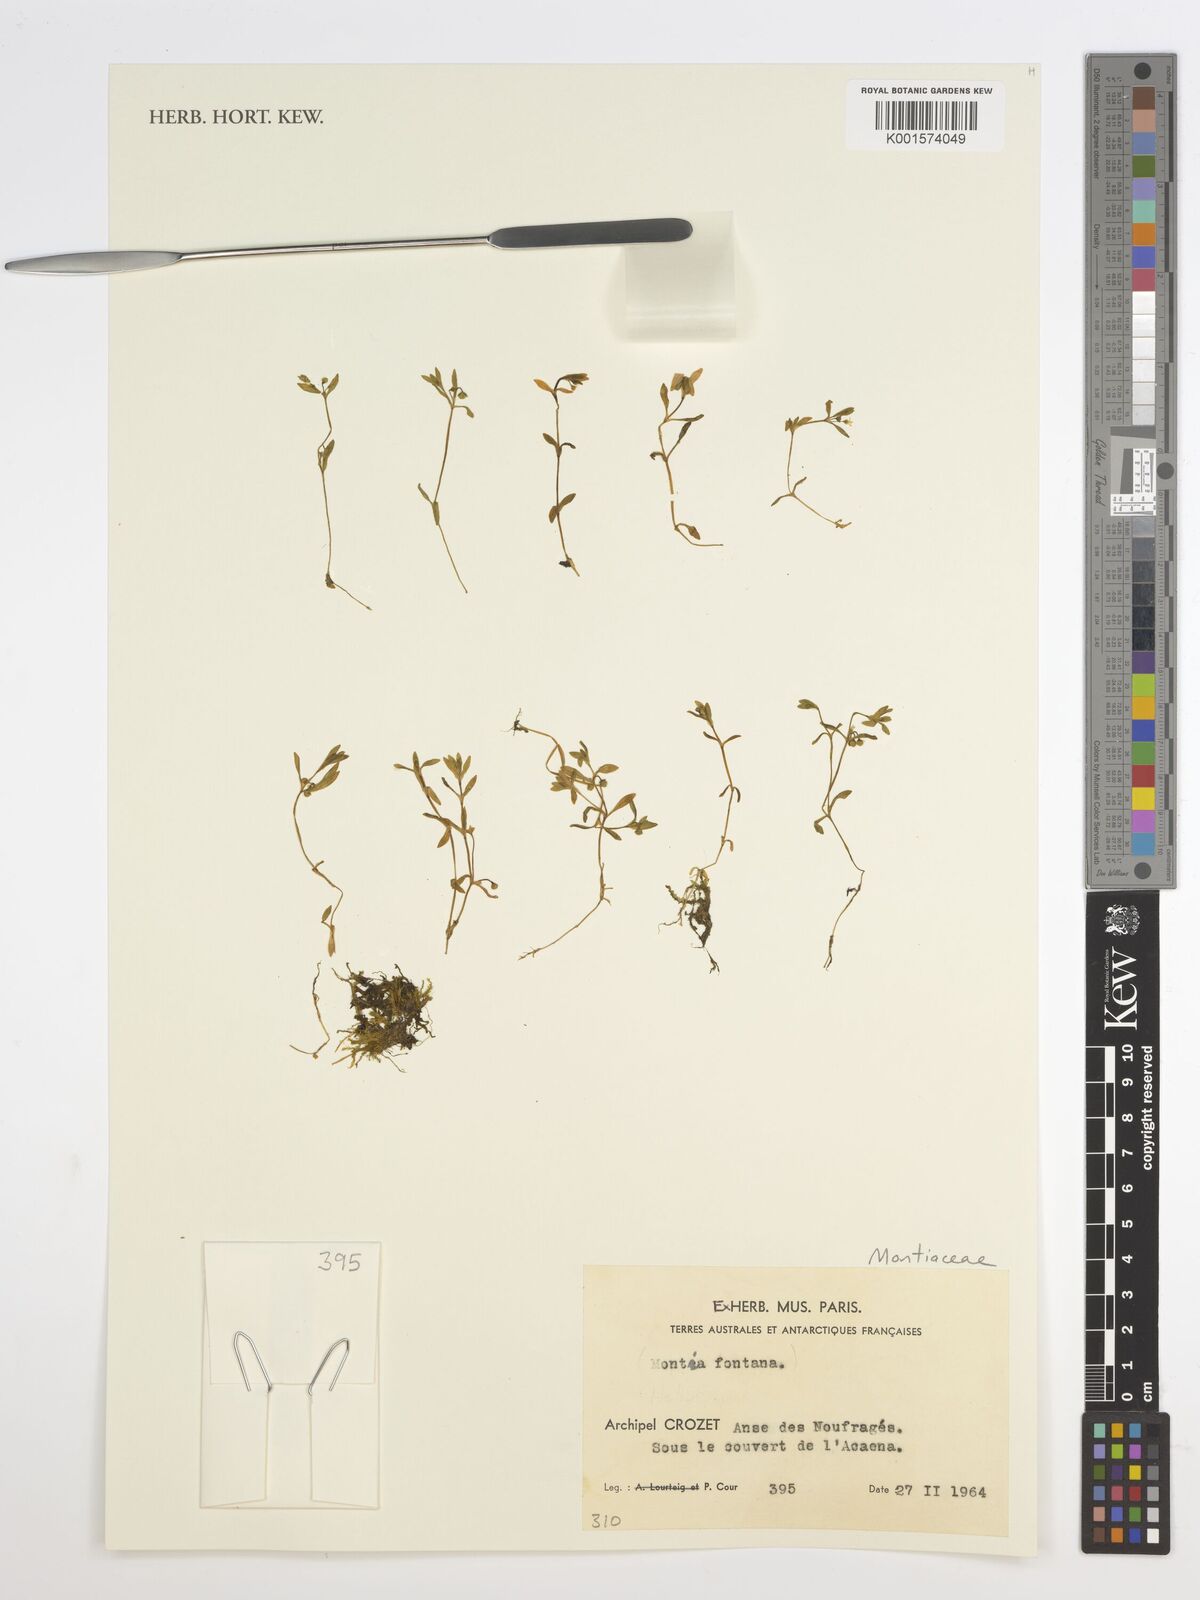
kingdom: Plantae
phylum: Tracheophyta
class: Magnoliopsida
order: Caryophyllales
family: Montiaceae
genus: Montia
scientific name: Montia fontana
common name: Blinks
